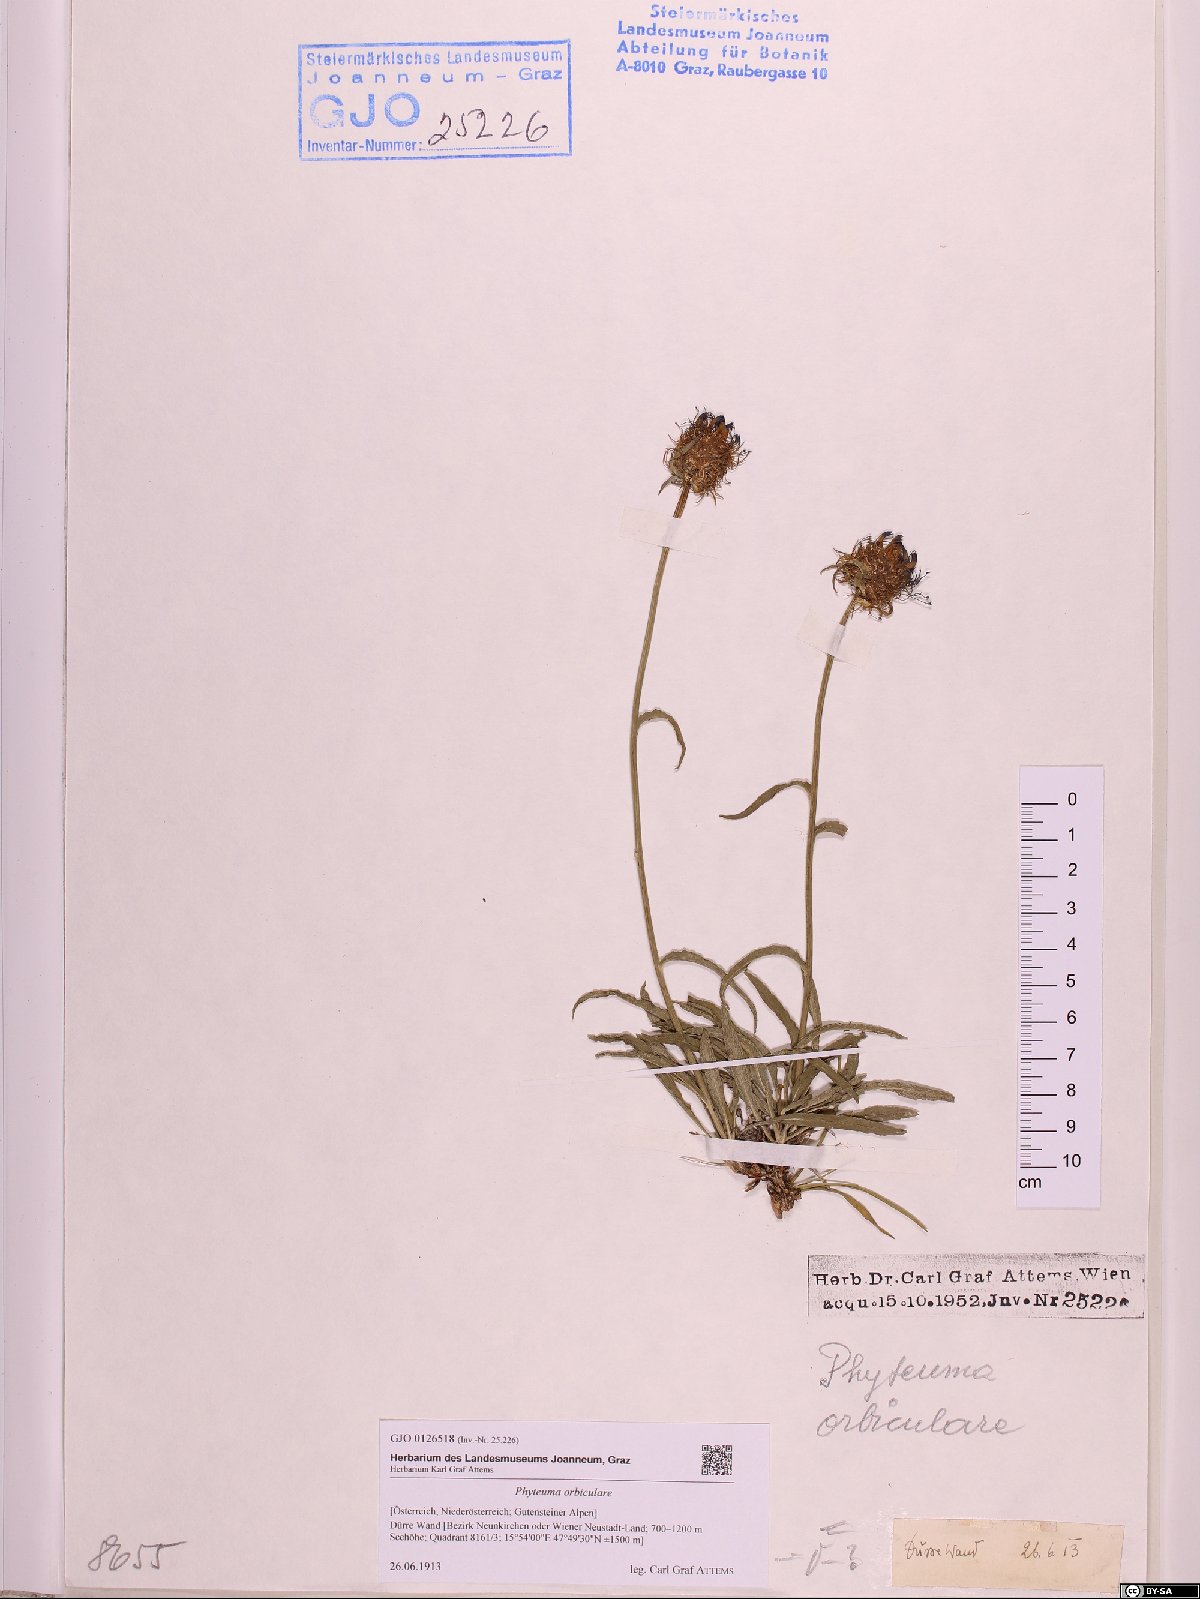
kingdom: Plantae
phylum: Tracheophyta
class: Magnoliopsida
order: Asterales
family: Campanulaceae
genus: Phyteuma
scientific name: Phyteuma orbiculare
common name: Round-headed rampion
